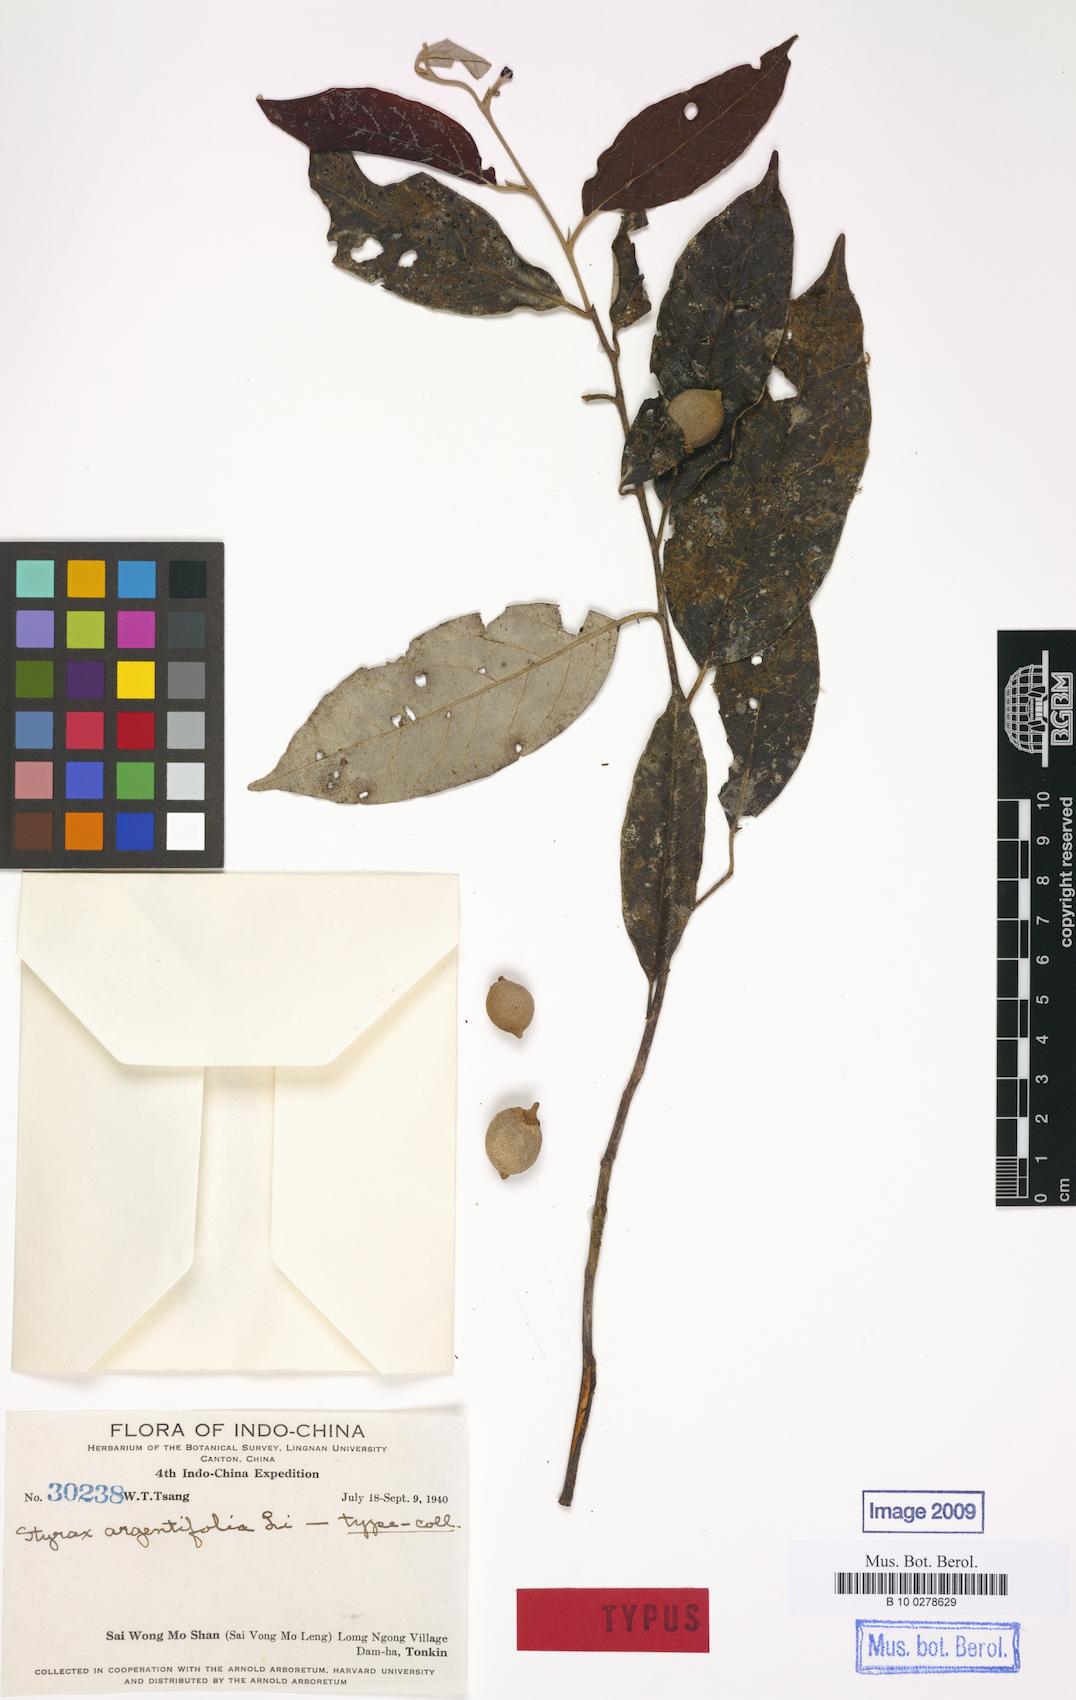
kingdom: Plantae
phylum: Tracheophyta
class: Magnoliopsida
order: Ericales
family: Styracaceae
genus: Styrax
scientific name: Styrax argentifolius
